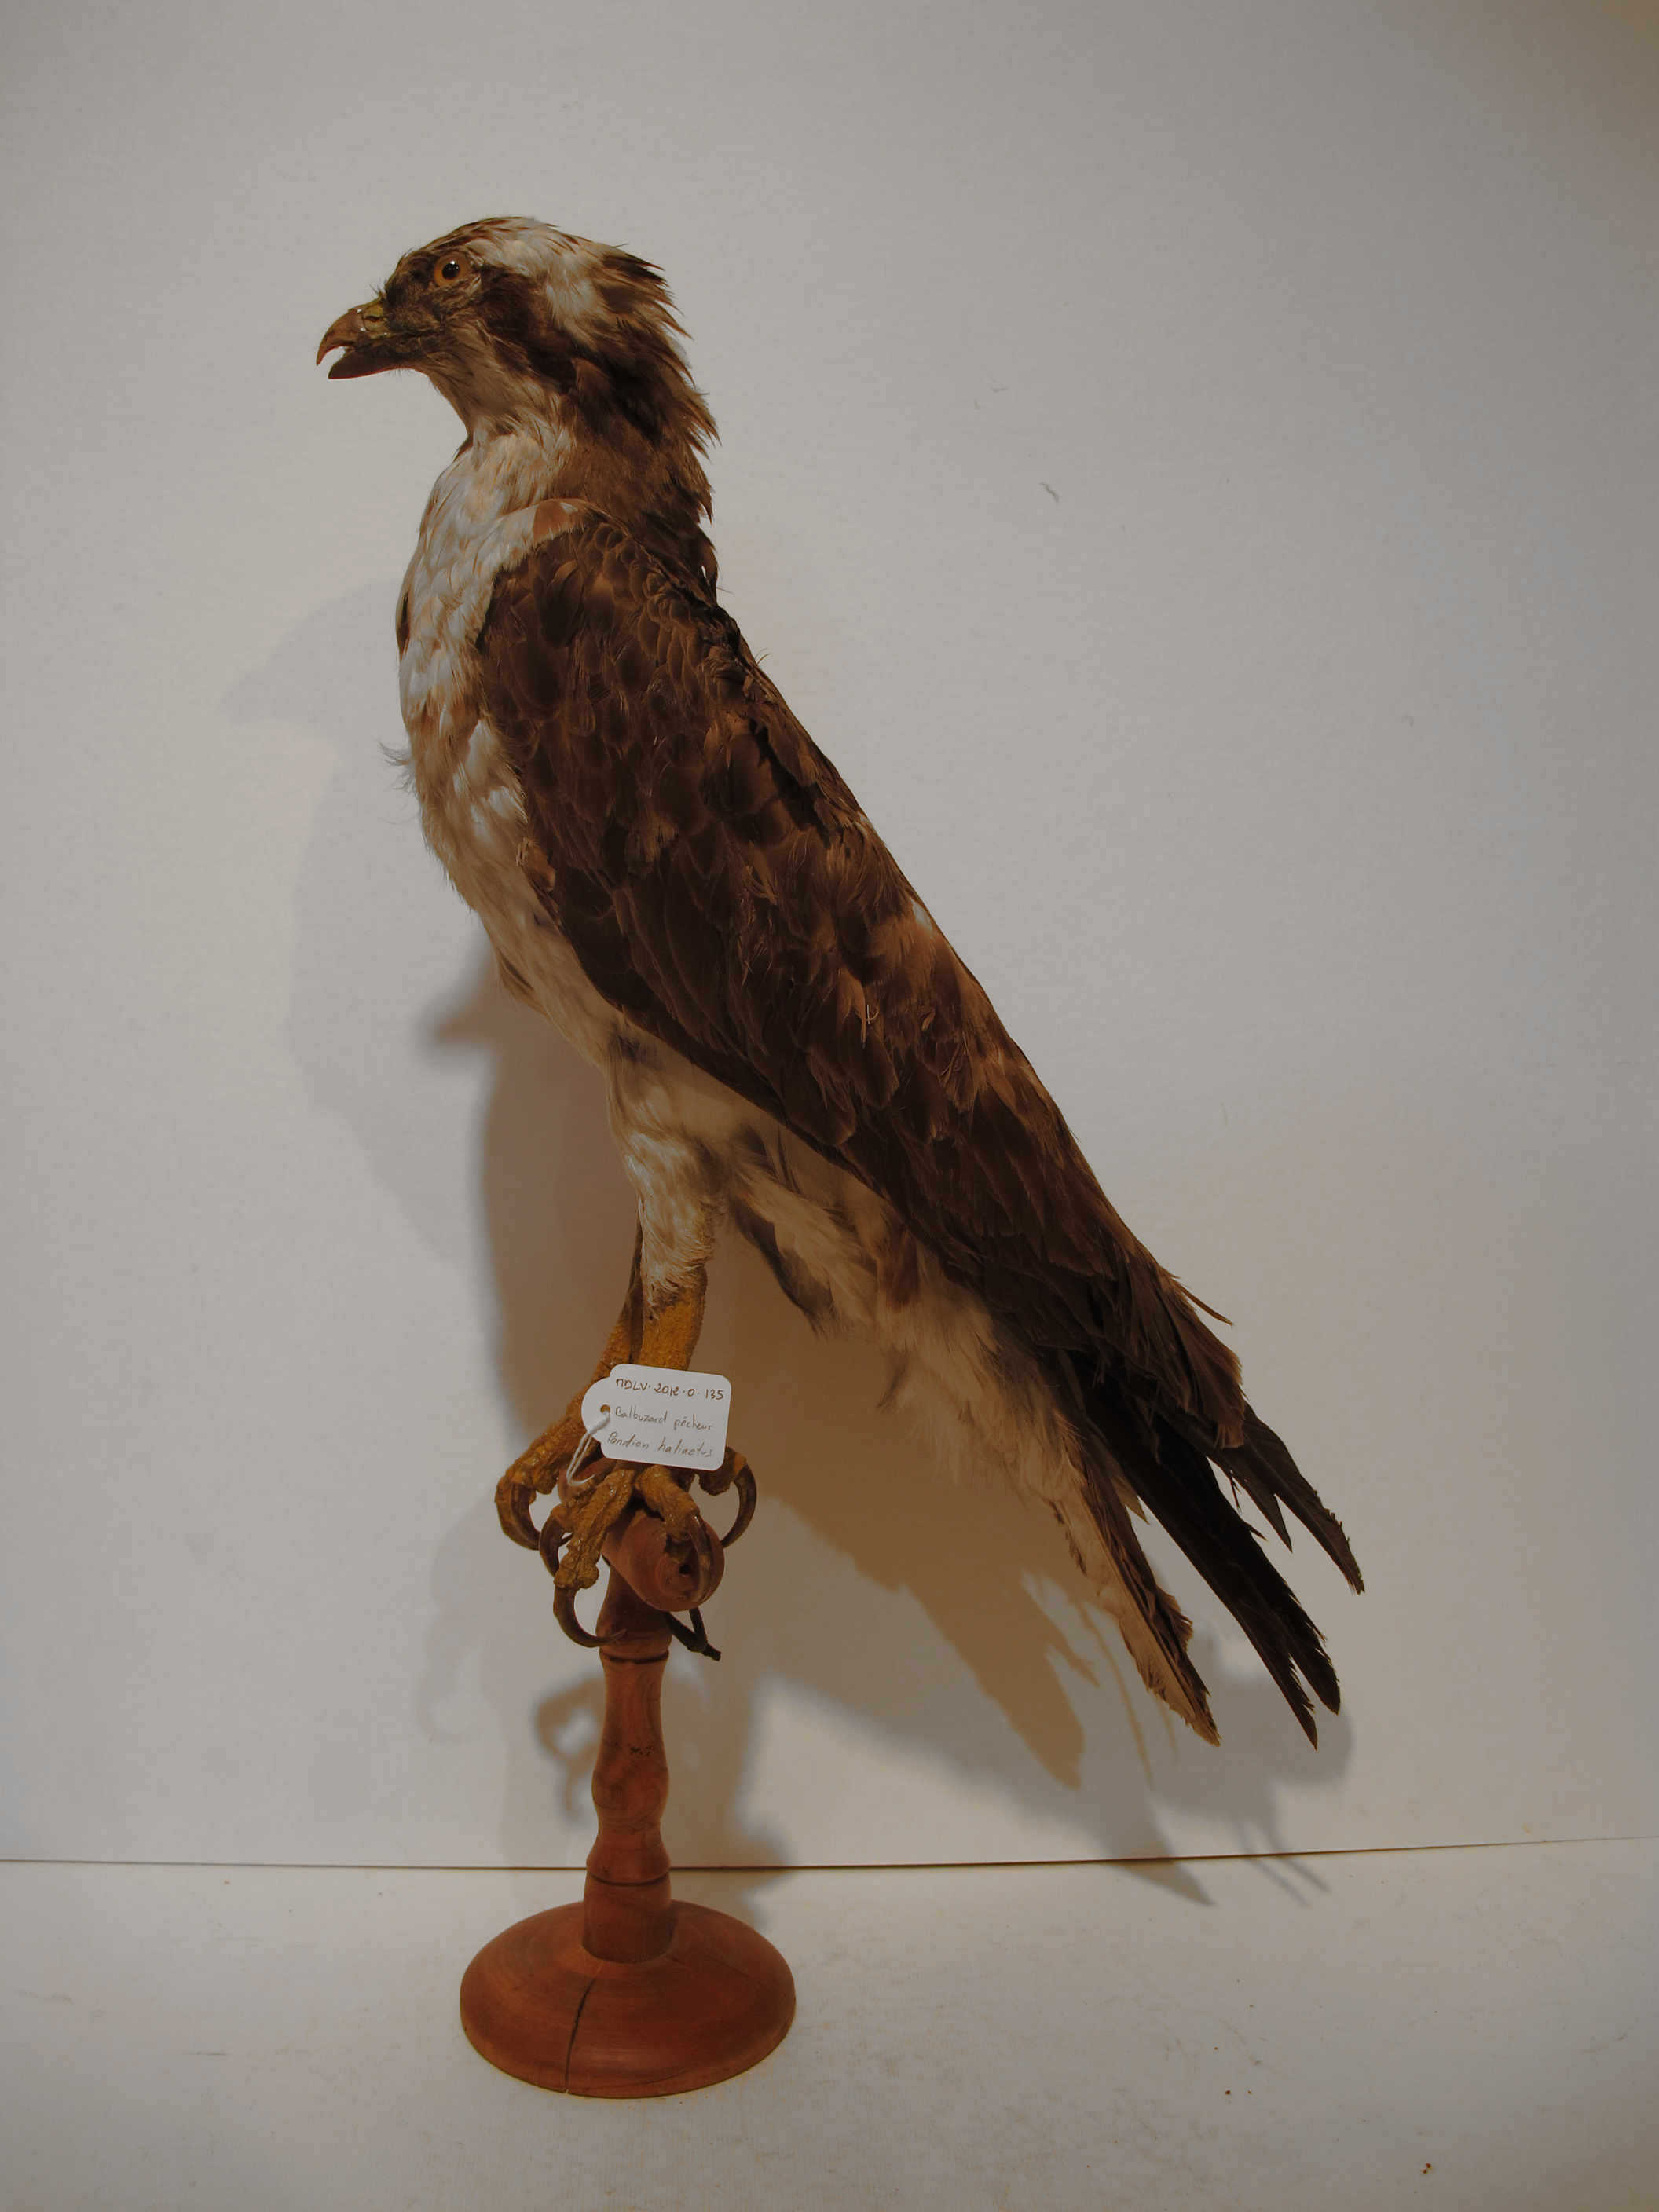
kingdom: Animalia
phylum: Chordata
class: Aves
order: Accipitriformes
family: Pandionidae
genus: Pandion
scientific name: Pandion haliaetus
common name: Osprey
